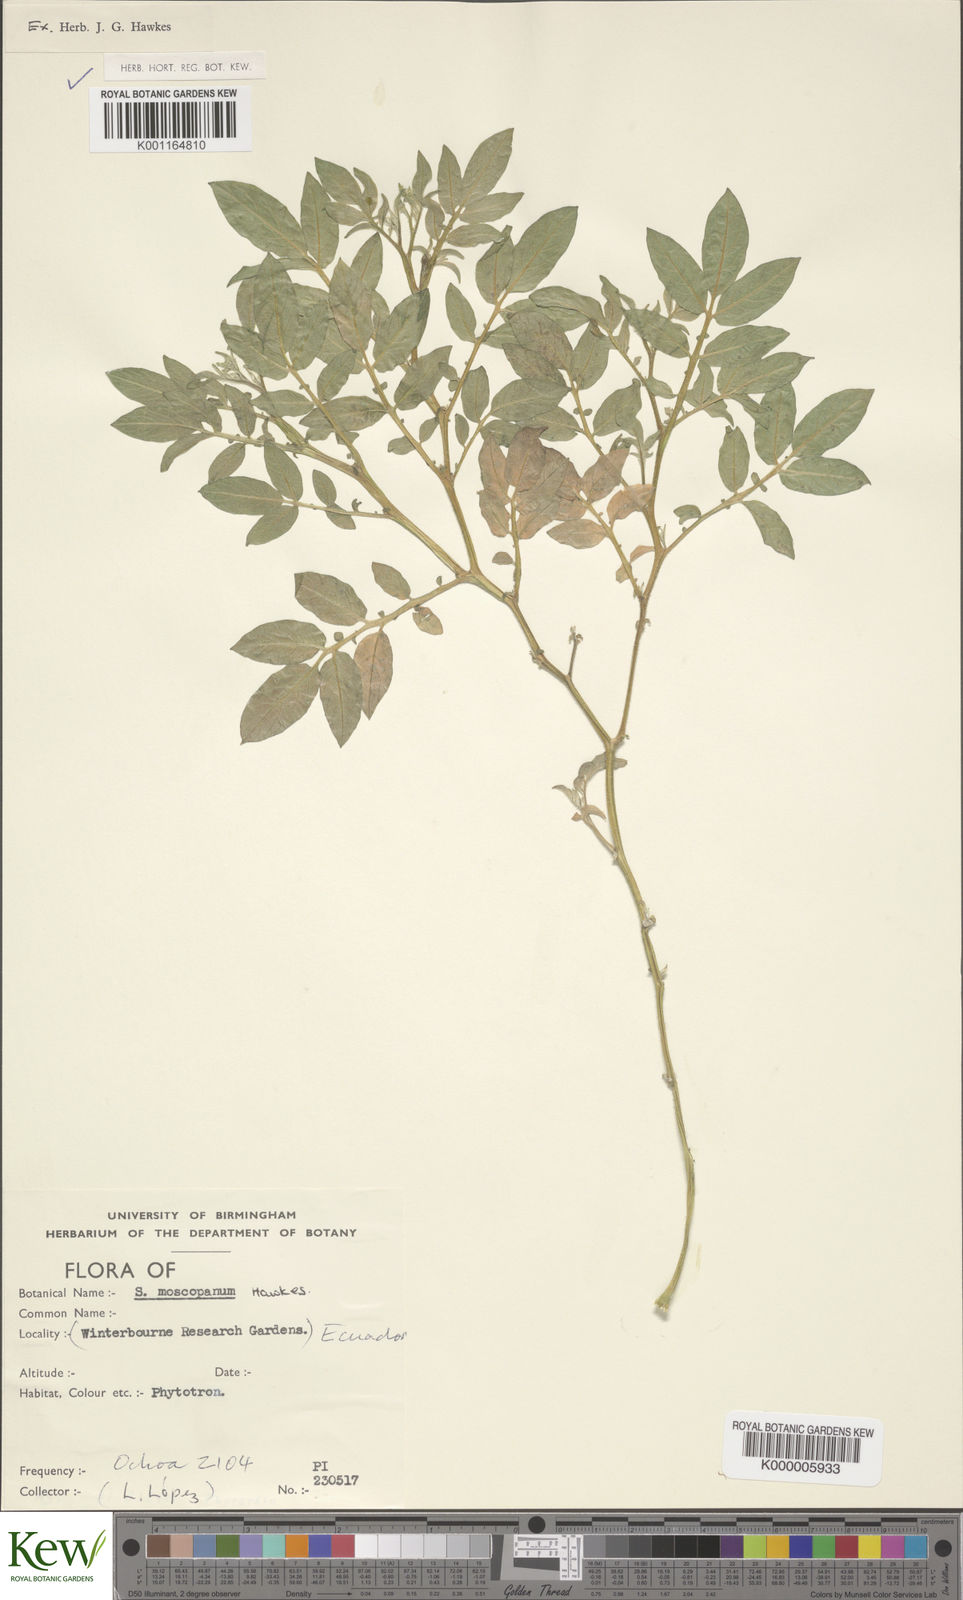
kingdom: Plantae
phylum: Tracheophyta
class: Magnoliopsida
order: Solanales
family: Solanaceae
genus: Solanum
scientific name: Solanum colombianum
